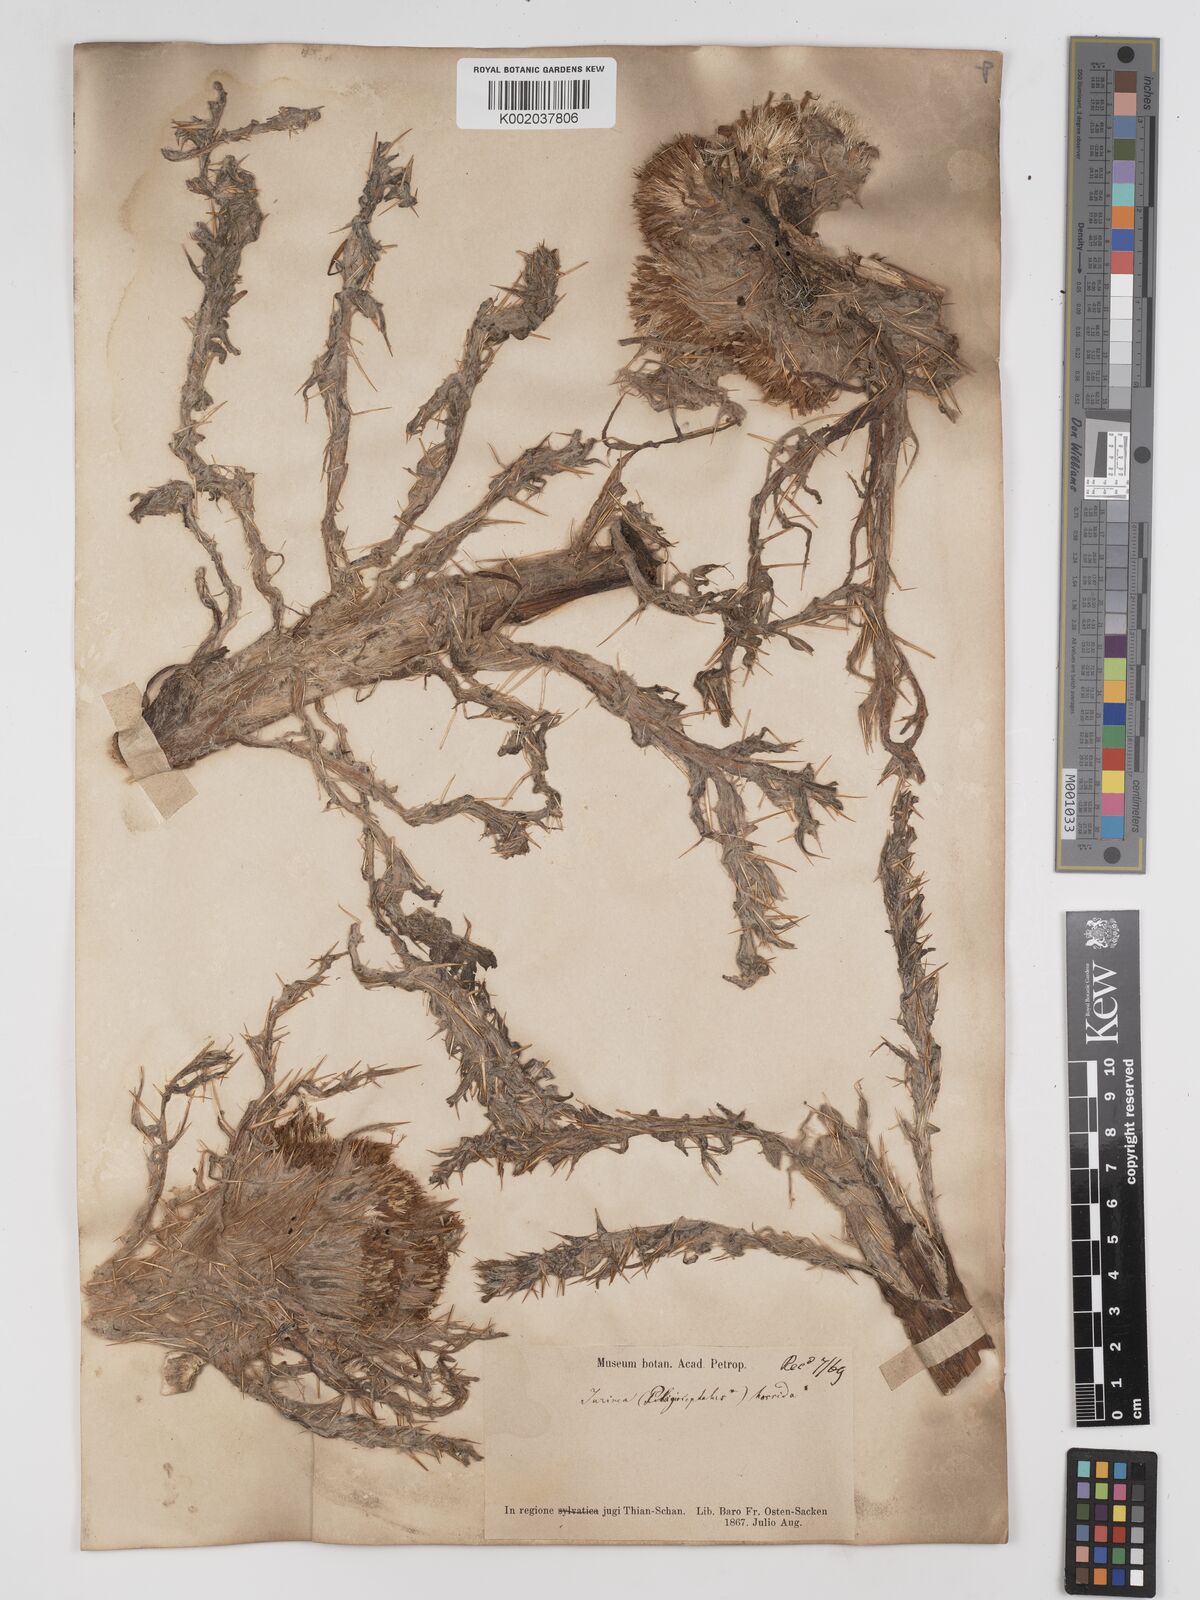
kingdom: Plantae
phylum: Tracheophyta
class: Magnoliopsida
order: Asterales
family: Asteraceae
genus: Olgaea
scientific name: Olgaea nidulans
